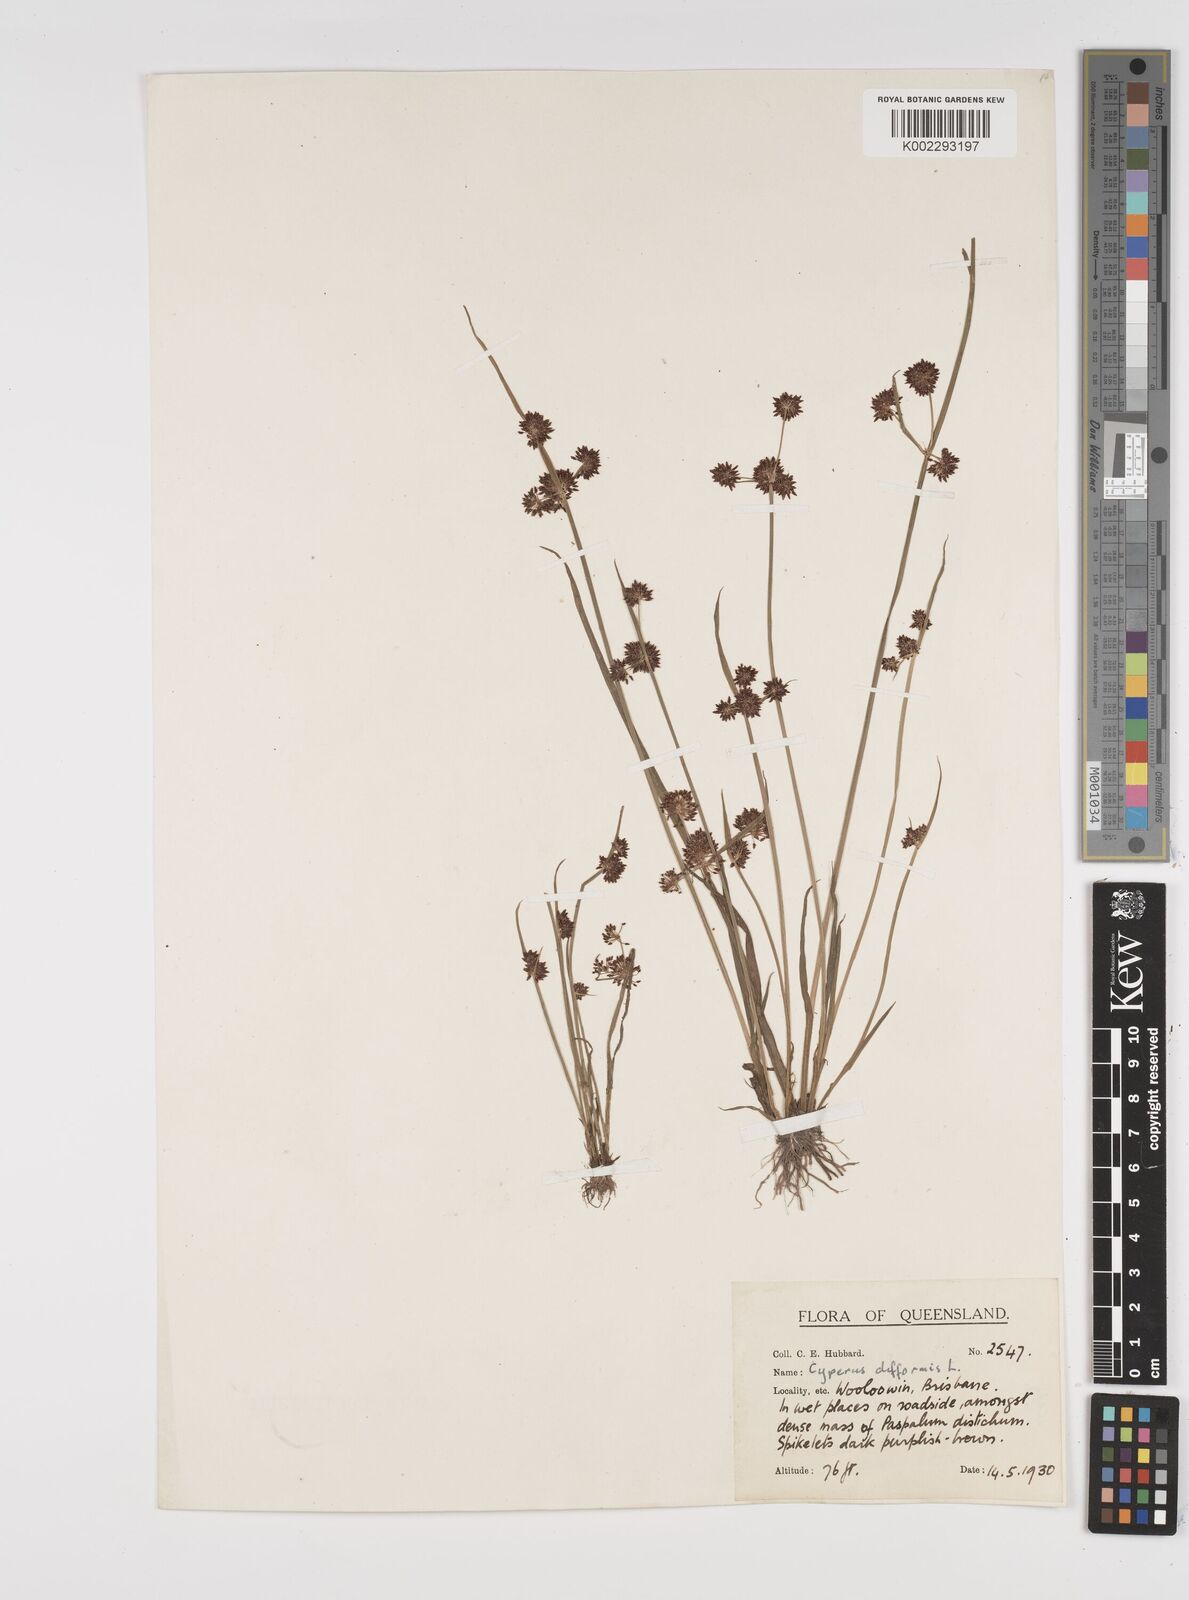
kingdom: Plantae
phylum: Tracheophyta
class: Liliopsida
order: Poales
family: Cyperaceae
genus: Cyperus
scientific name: Cyperus difformis
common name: Variable flatsedge
